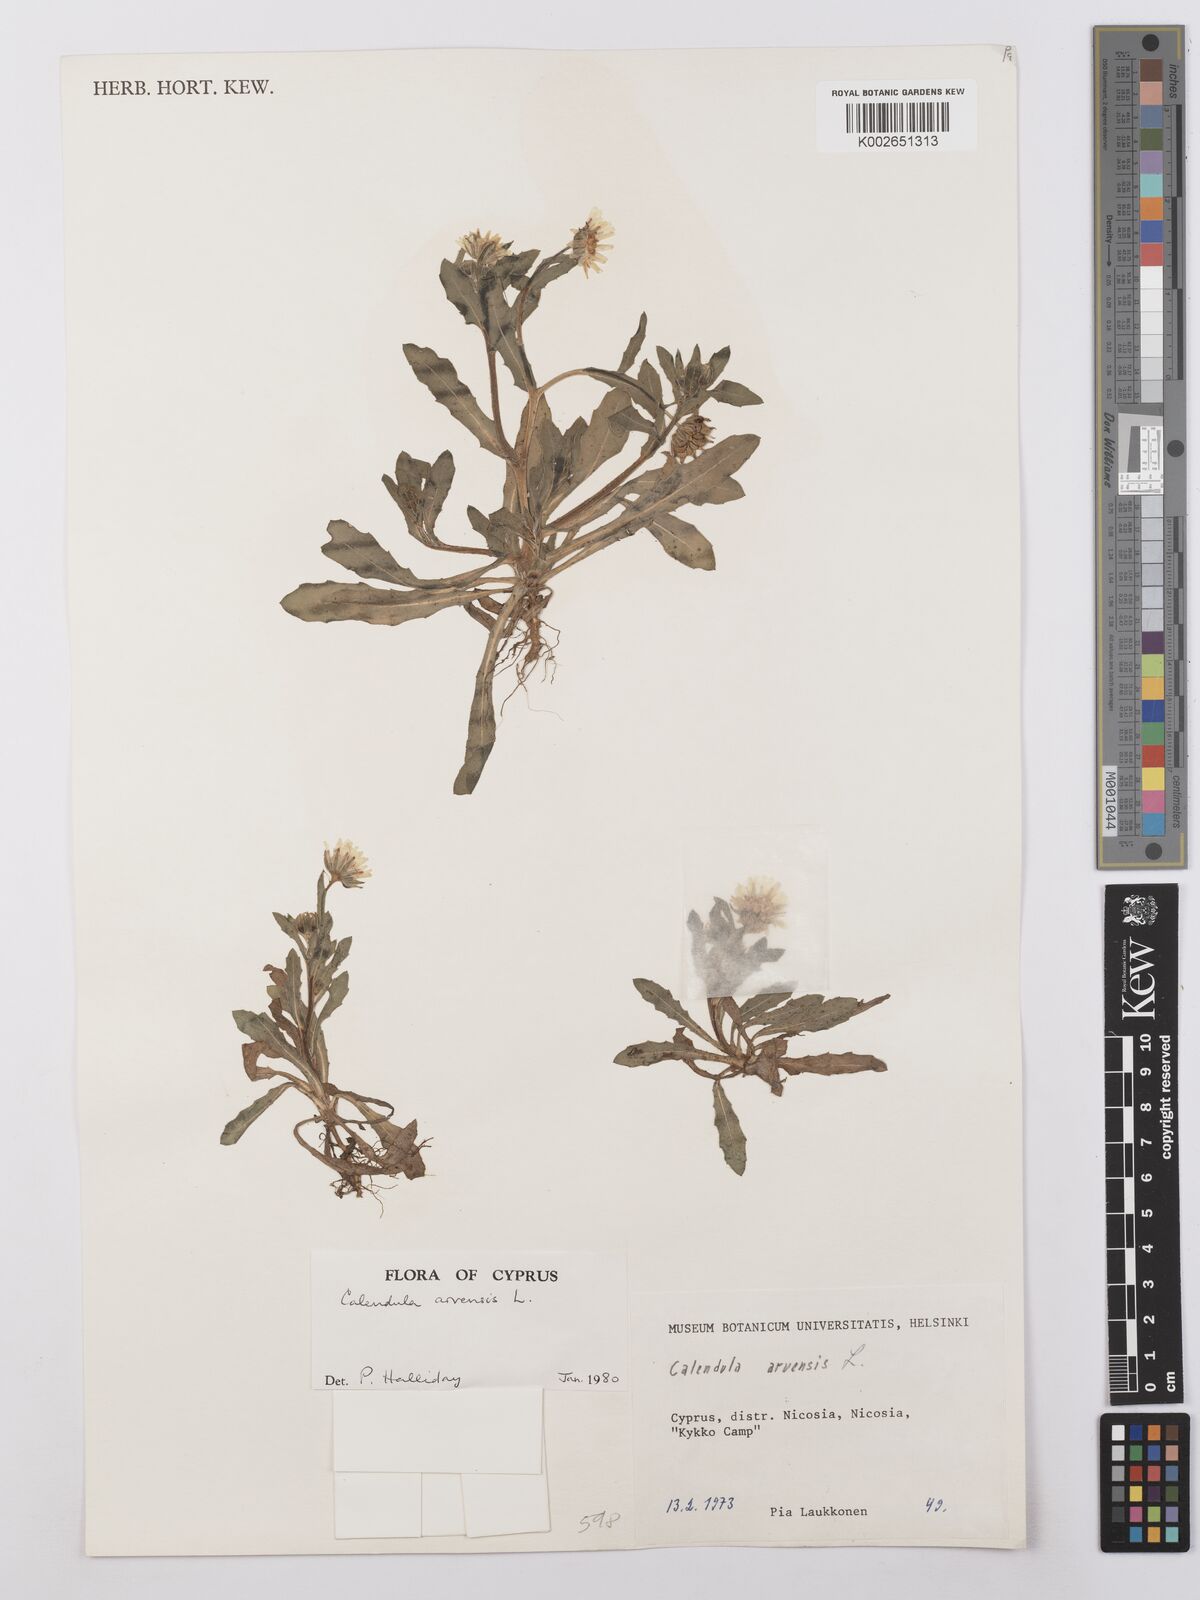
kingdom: Plantae
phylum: Tracheophyta
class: Magnoliopsida
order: Asterales
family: Asteraceae
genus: Calendula
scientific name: Calendula arvensis
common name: Field marigold
